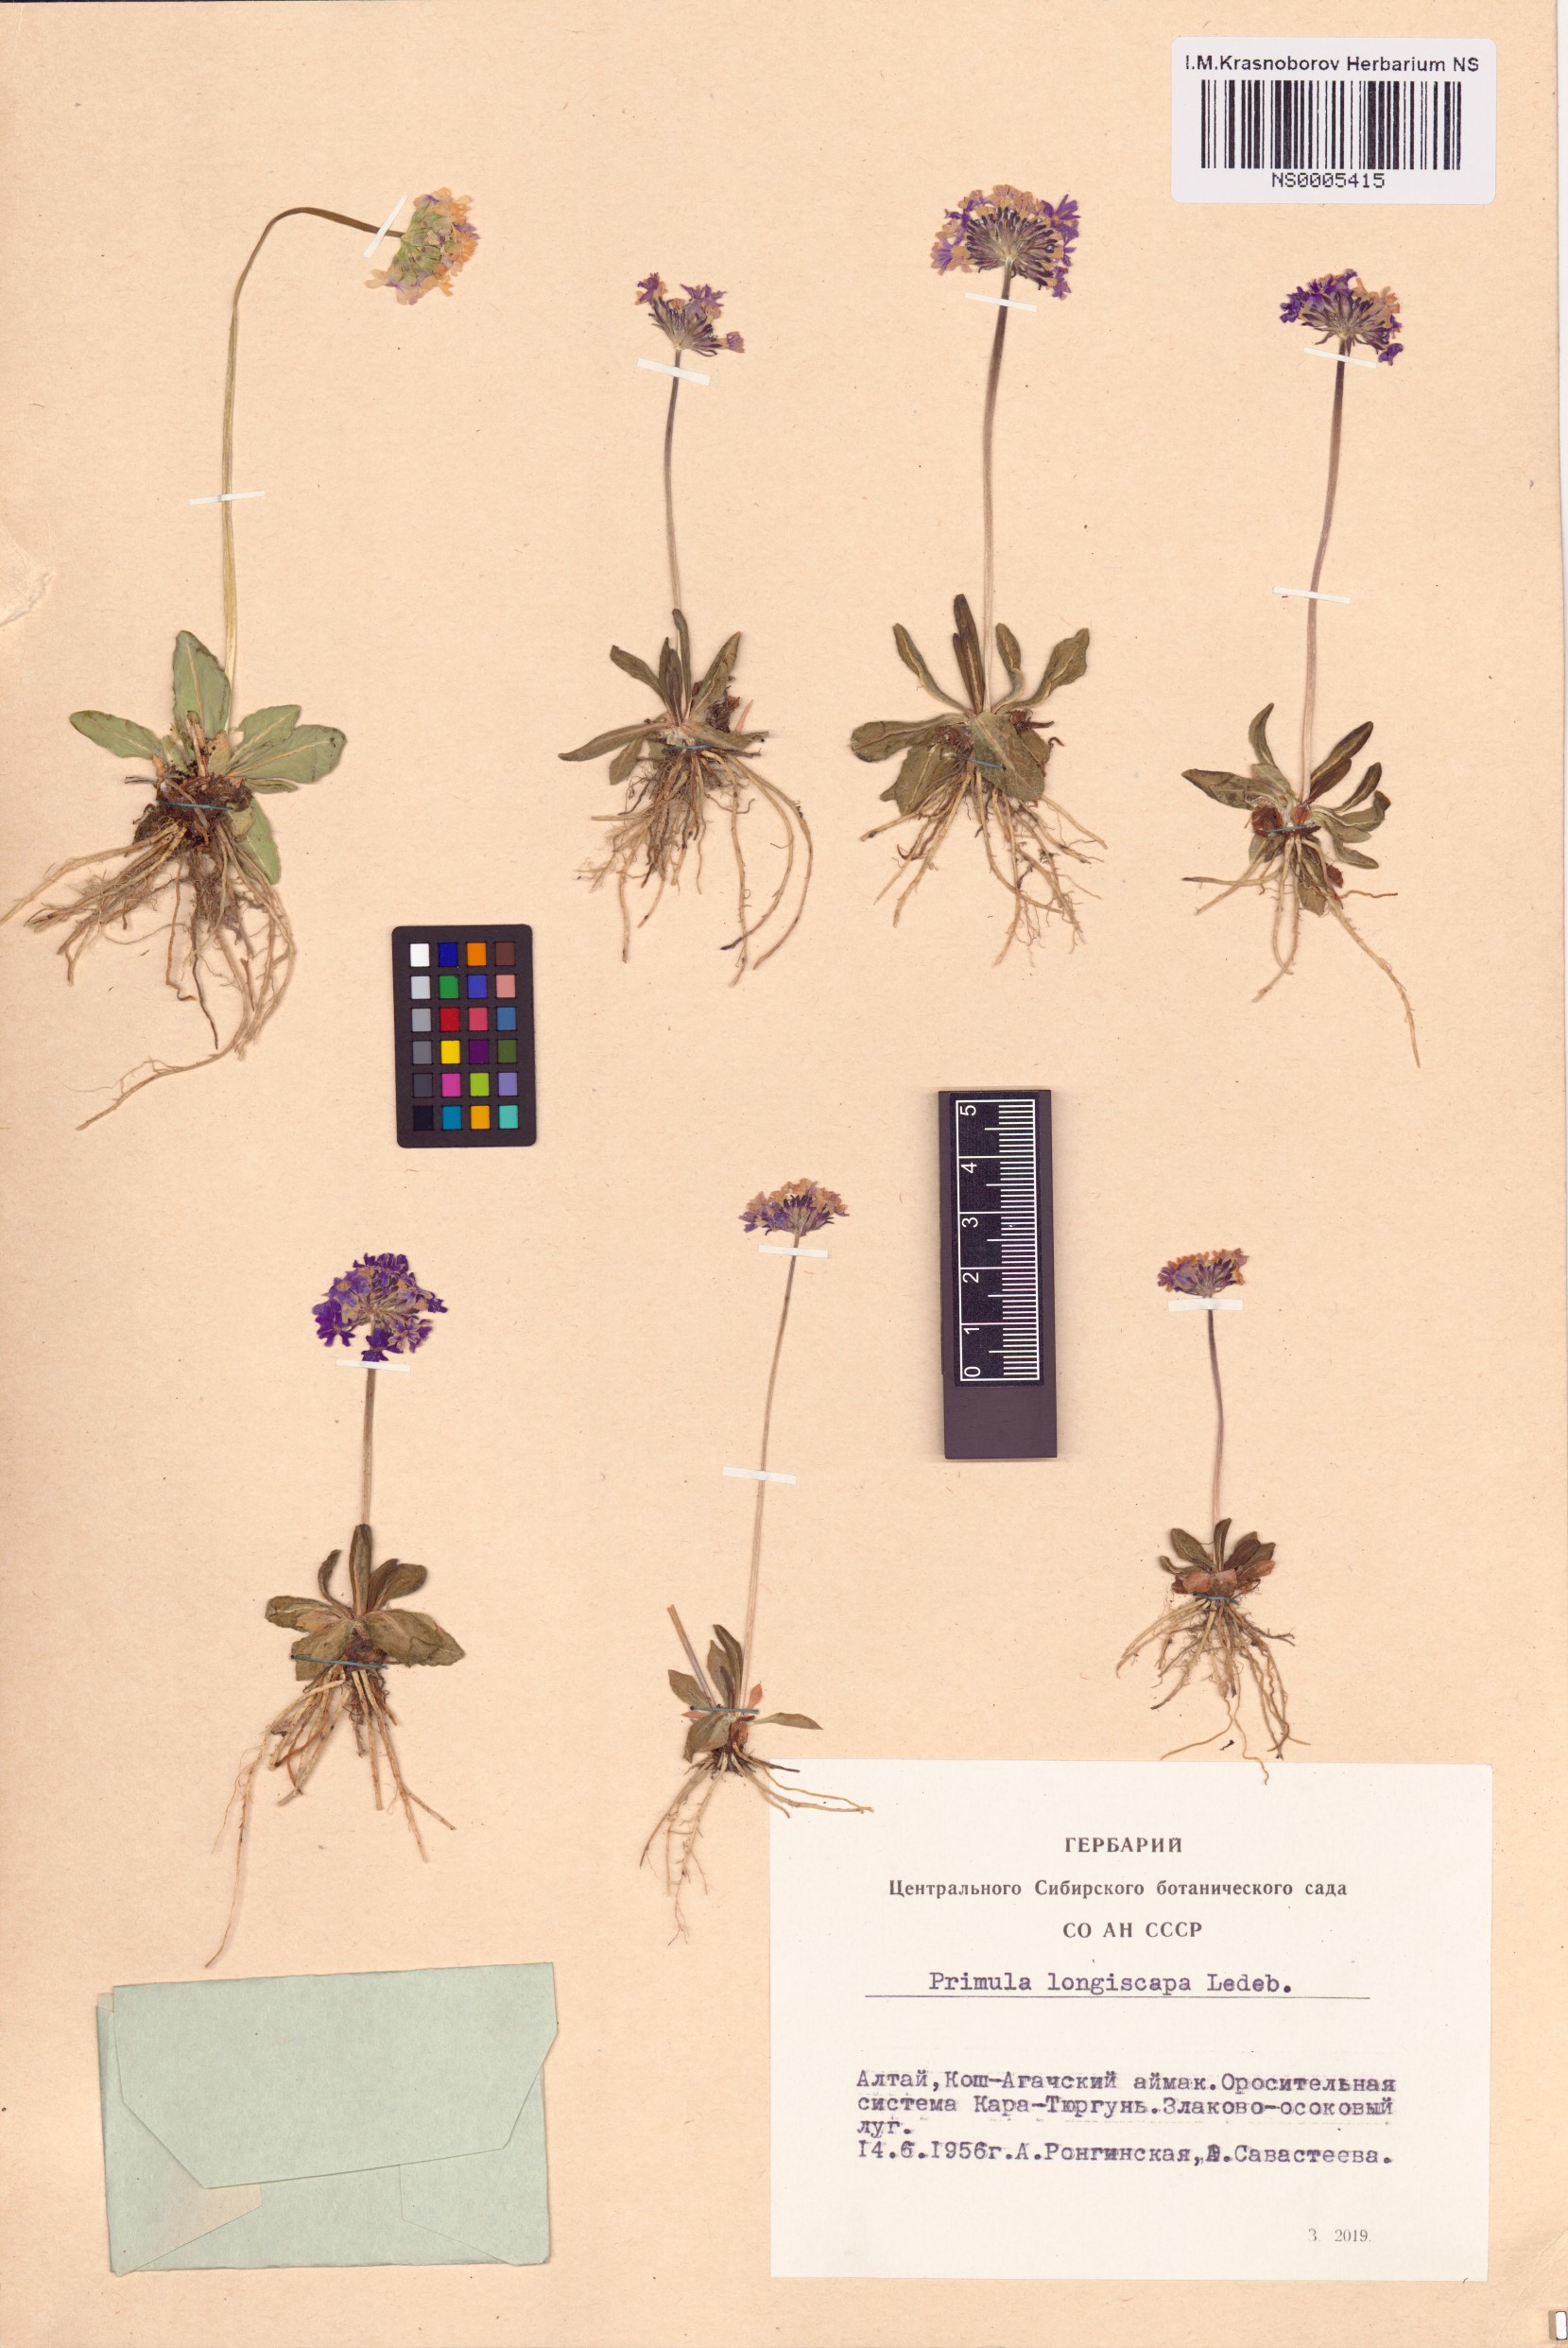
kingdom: Plantae
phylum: Tracheophyta
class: Magnoliopsida
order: Ericales
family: Primulaceae
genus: Primula
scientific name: Primula longiscapa
